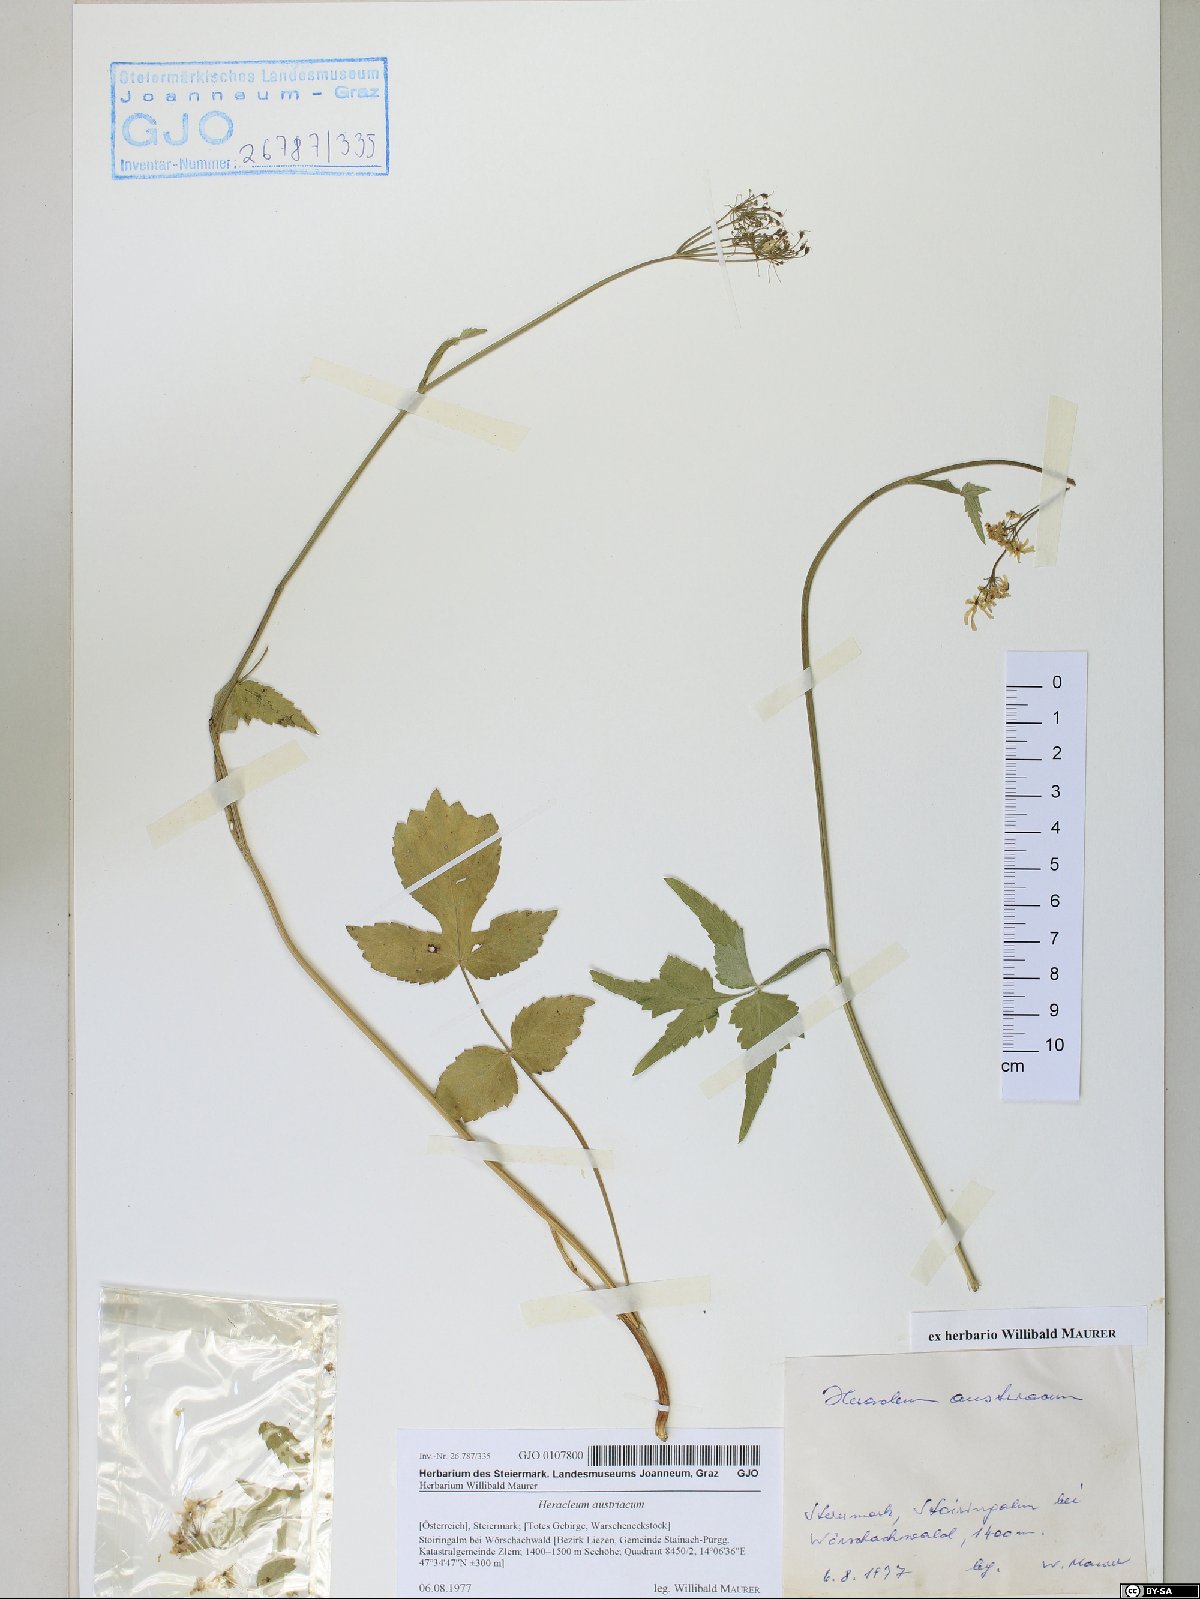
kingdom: Plantae
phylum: Tracheophyta
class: Magnoliopsida
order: Apiales
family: Apiaceae
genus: Heracleum
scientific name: Heracleum austriacum
